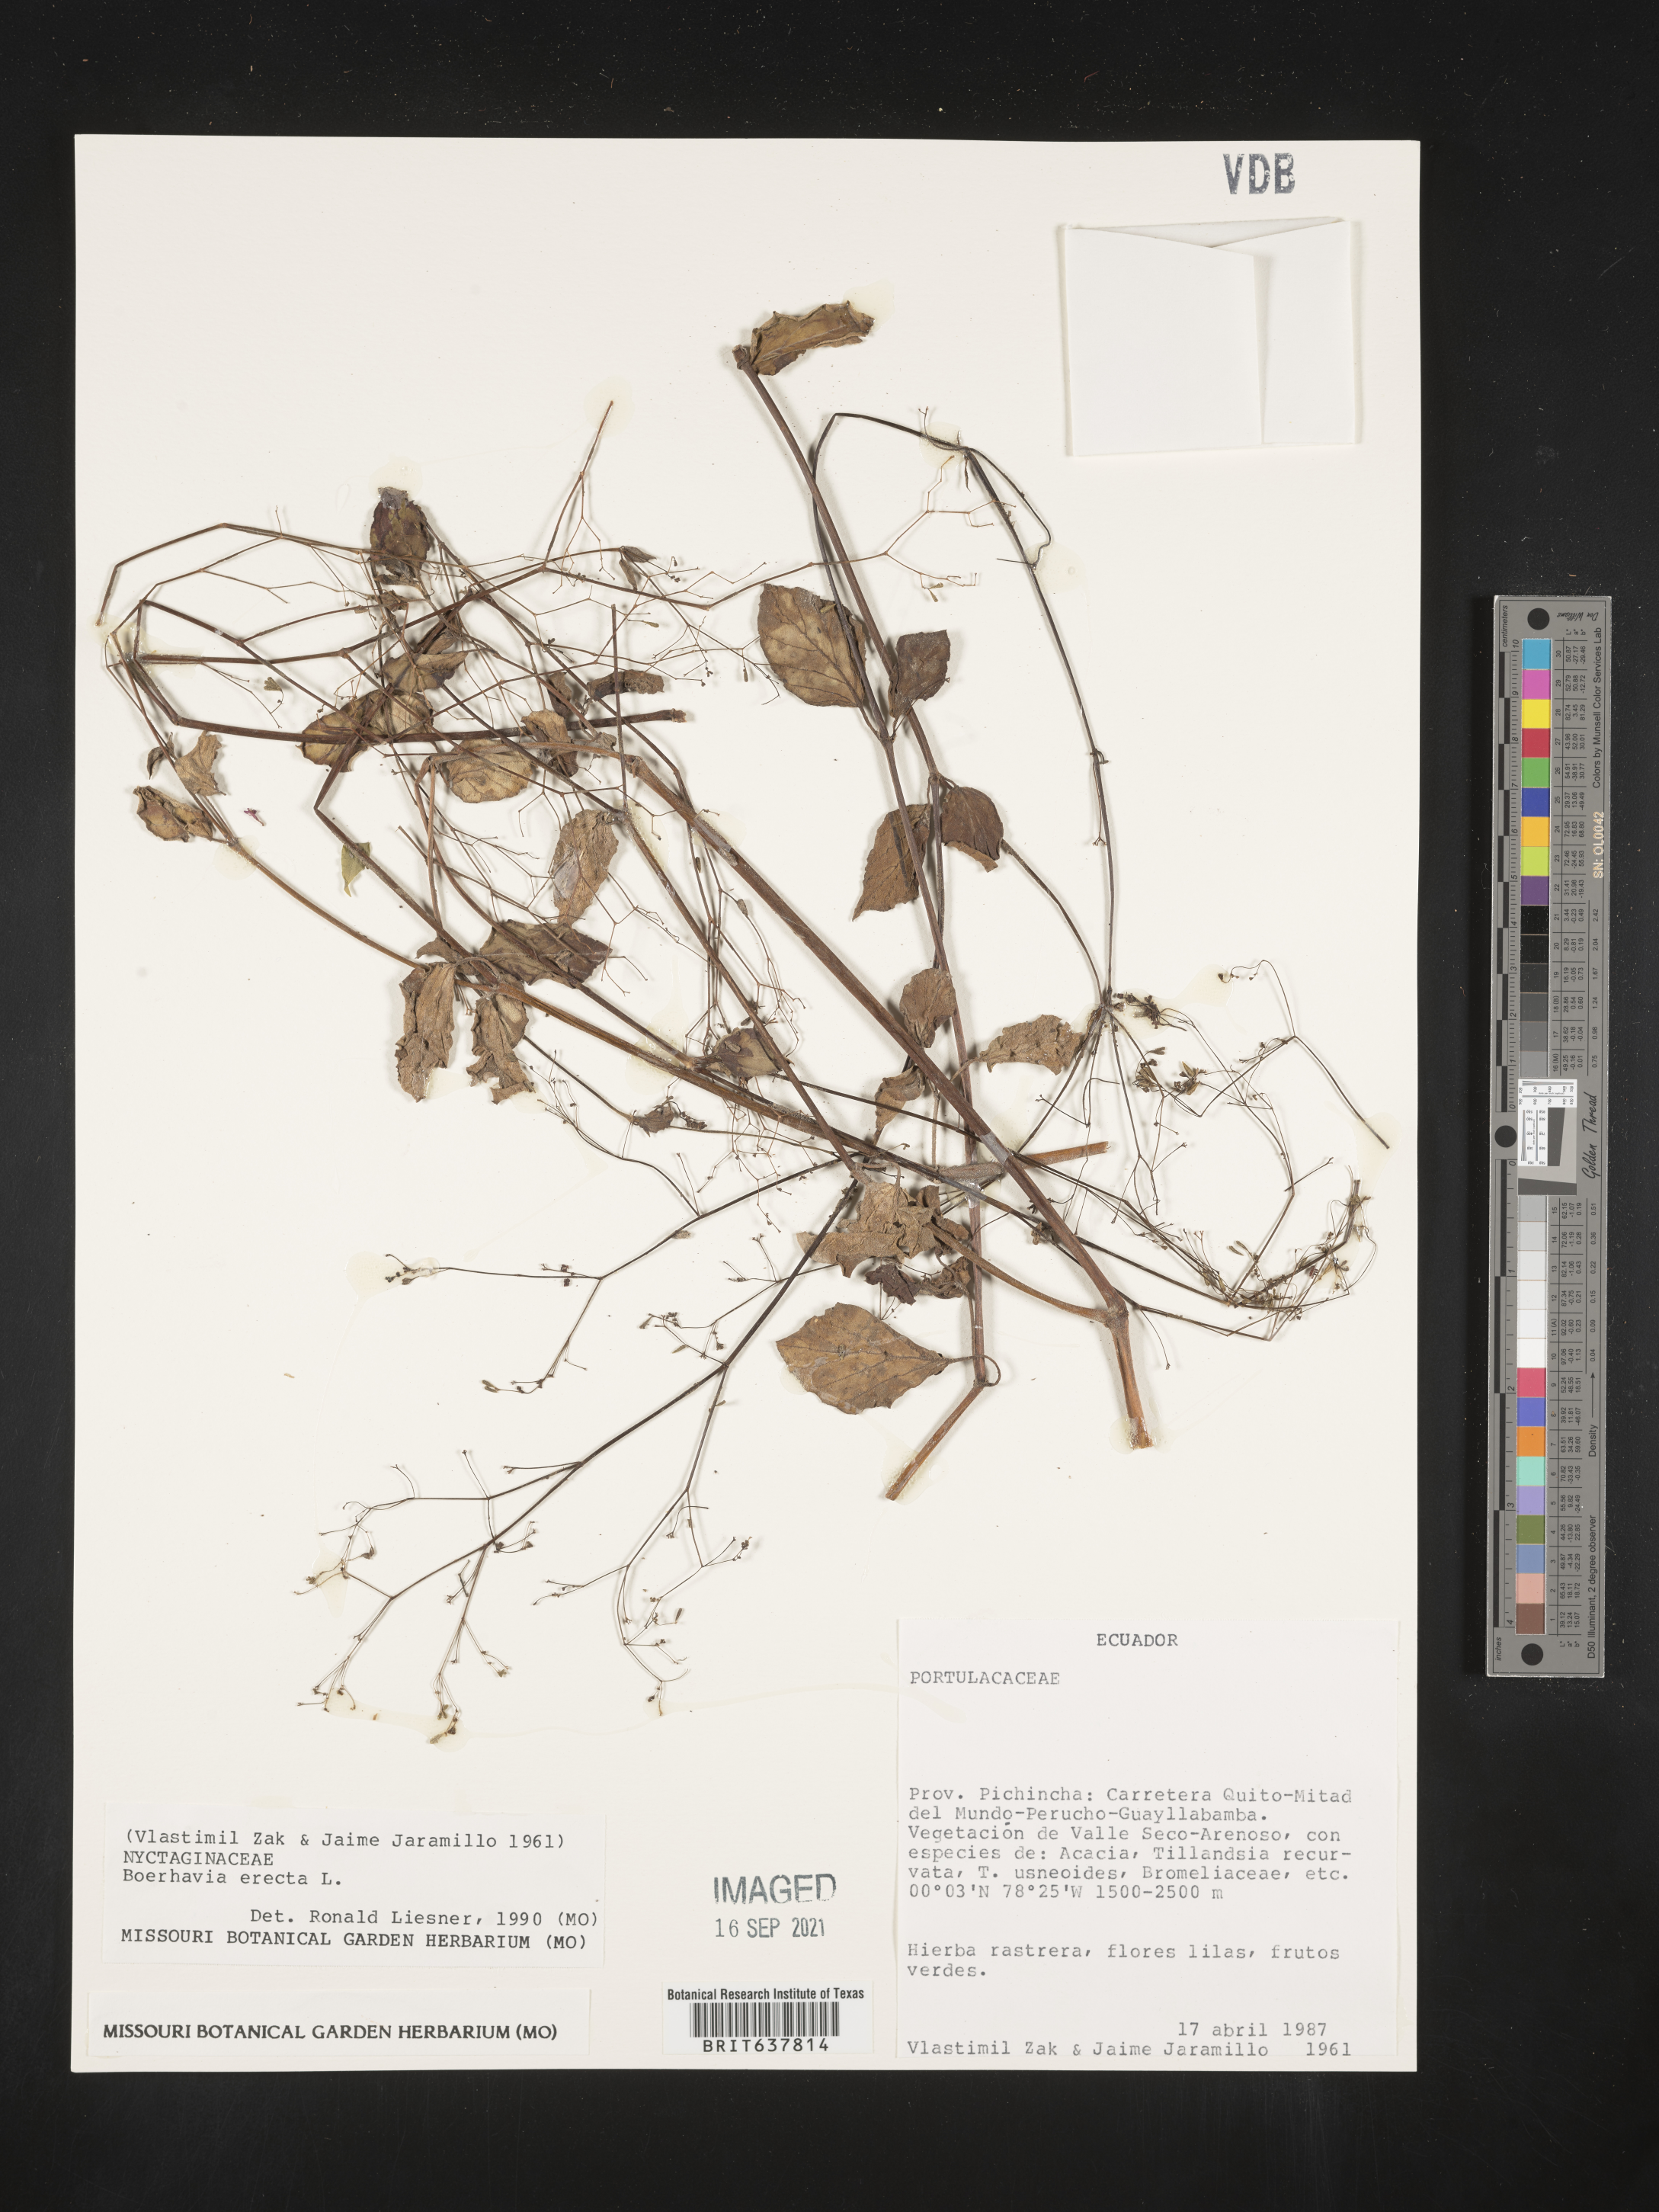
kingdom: Plantae
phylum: Tracheophyta
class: Magnoliopsida
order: Caryophyllales
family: Nyctaginaceae
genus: Boerhavia
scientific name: Boerhavia
